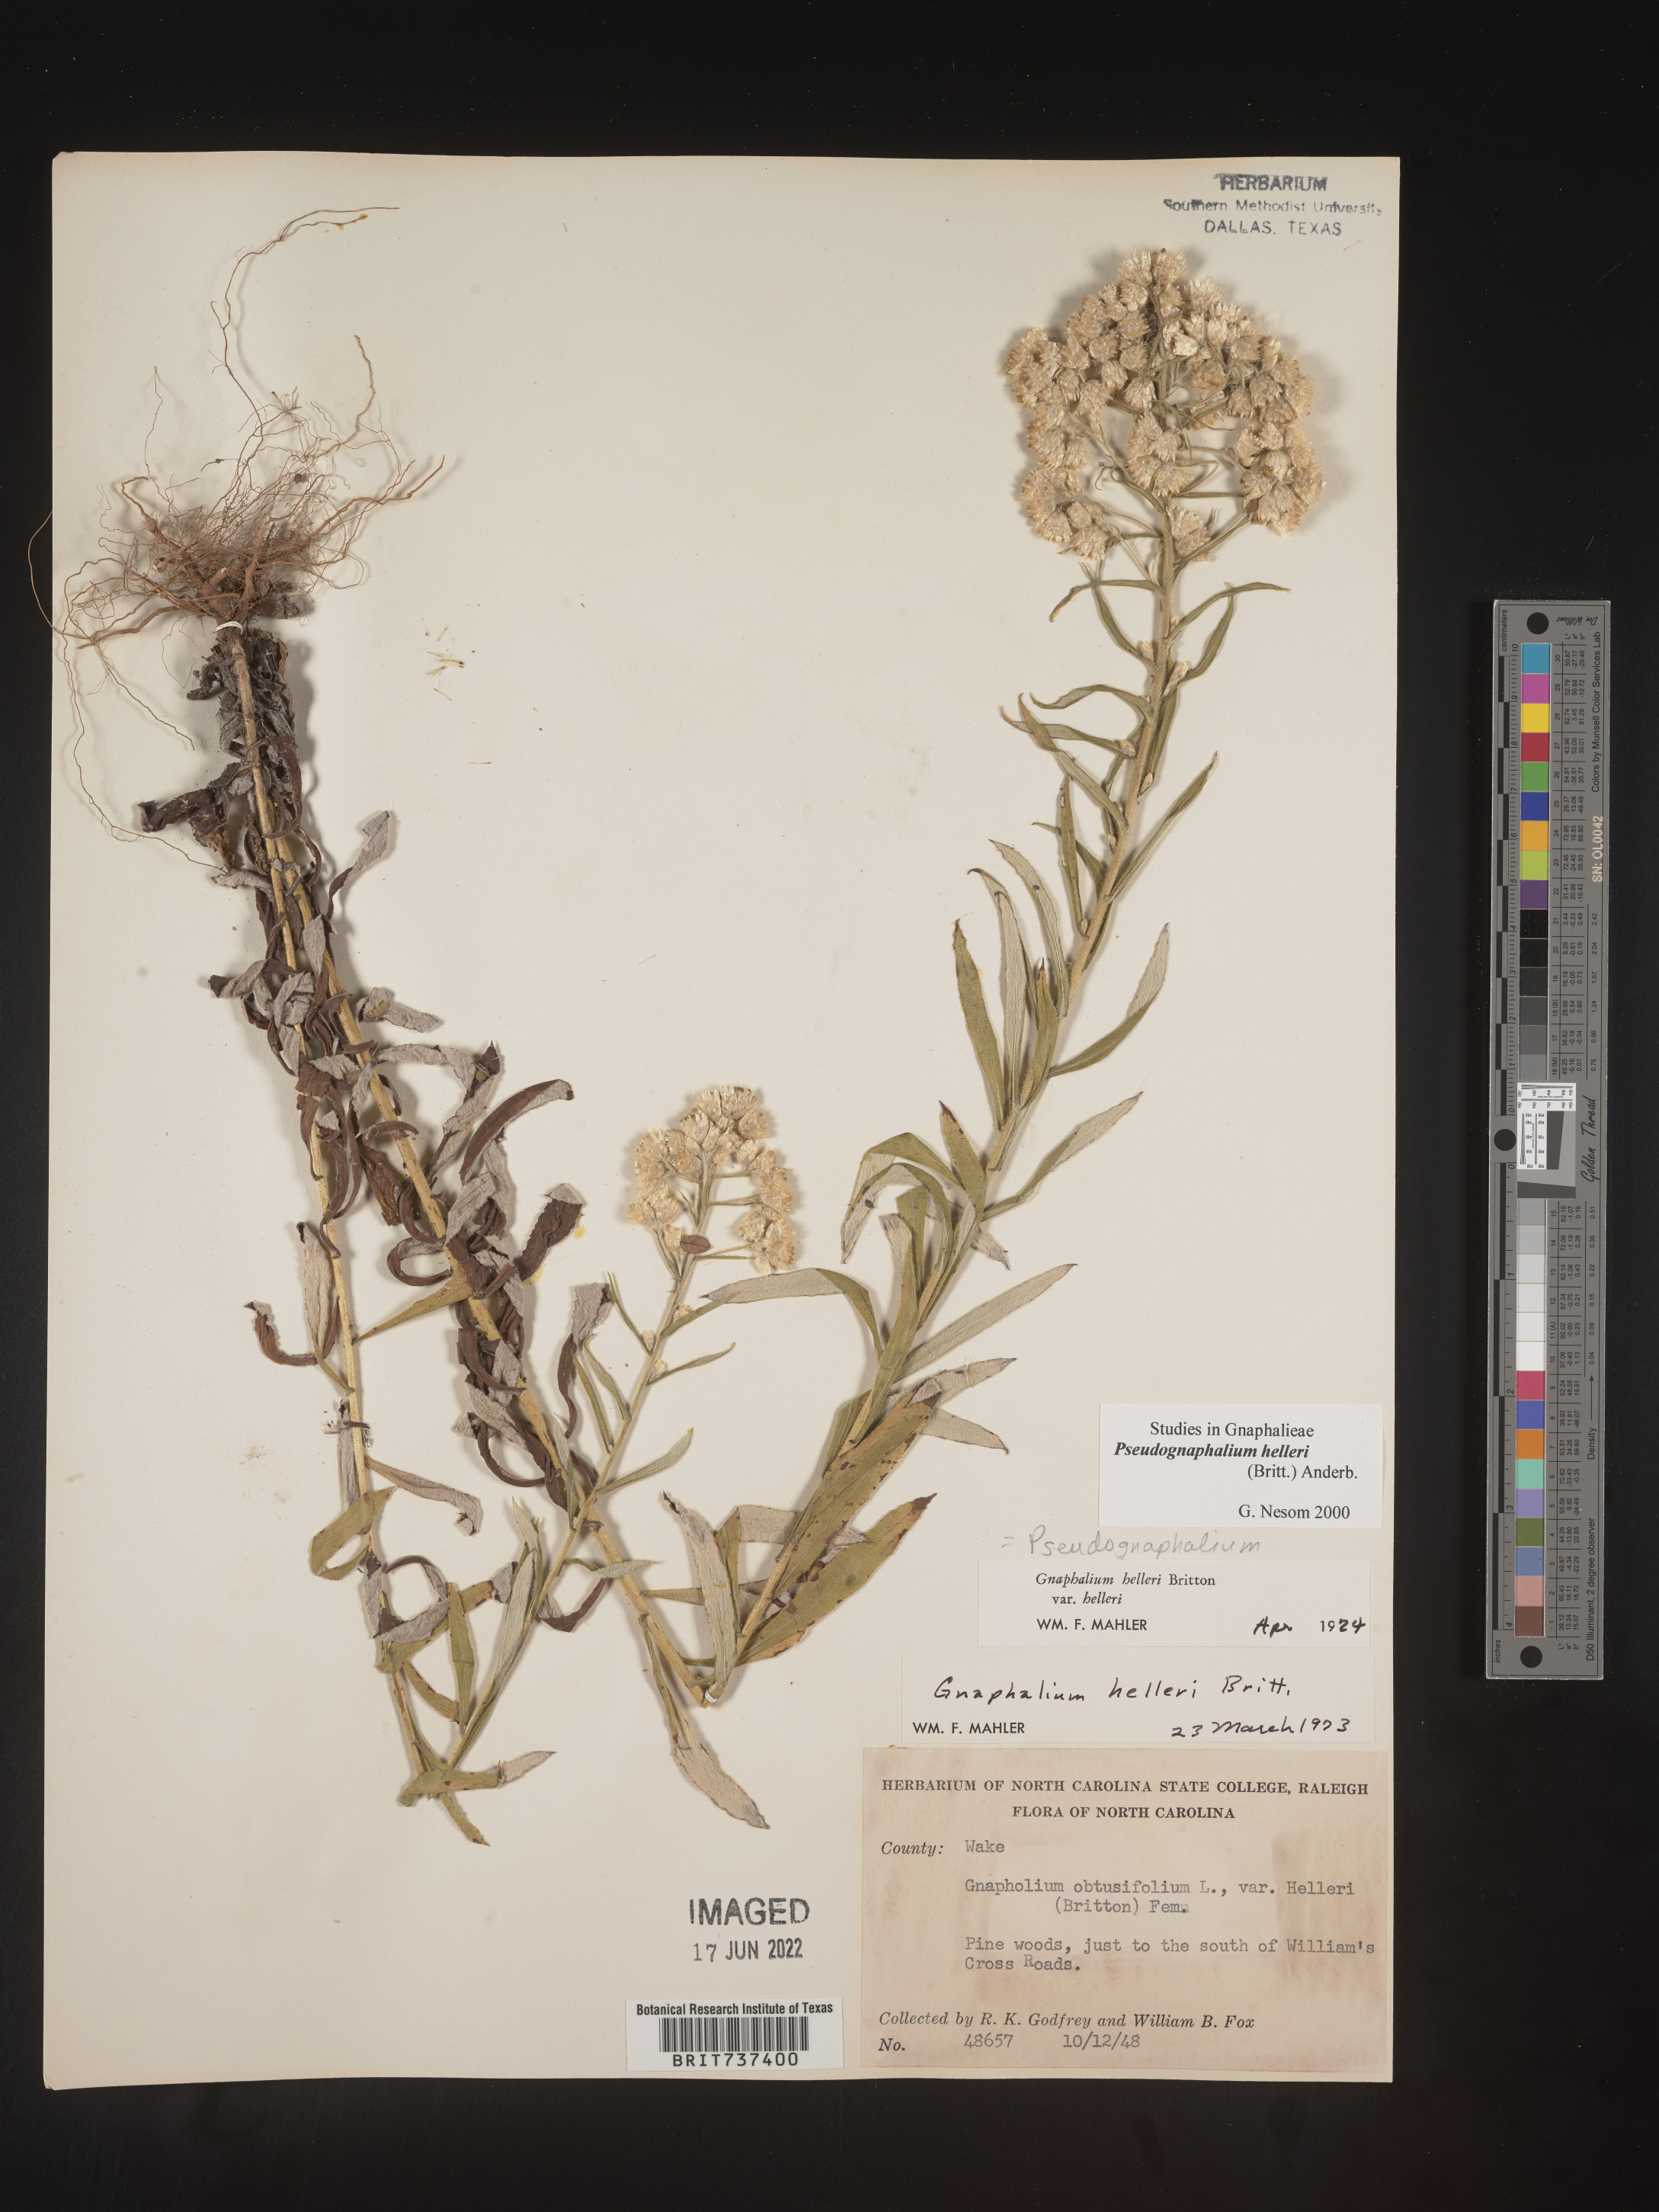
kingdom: Plantae
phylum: Tracheophyta
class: Magnoliopsida
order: Asterales
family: Asteraceae
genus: Pseudognaphalium
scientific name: Pseudognaphalium helleri
